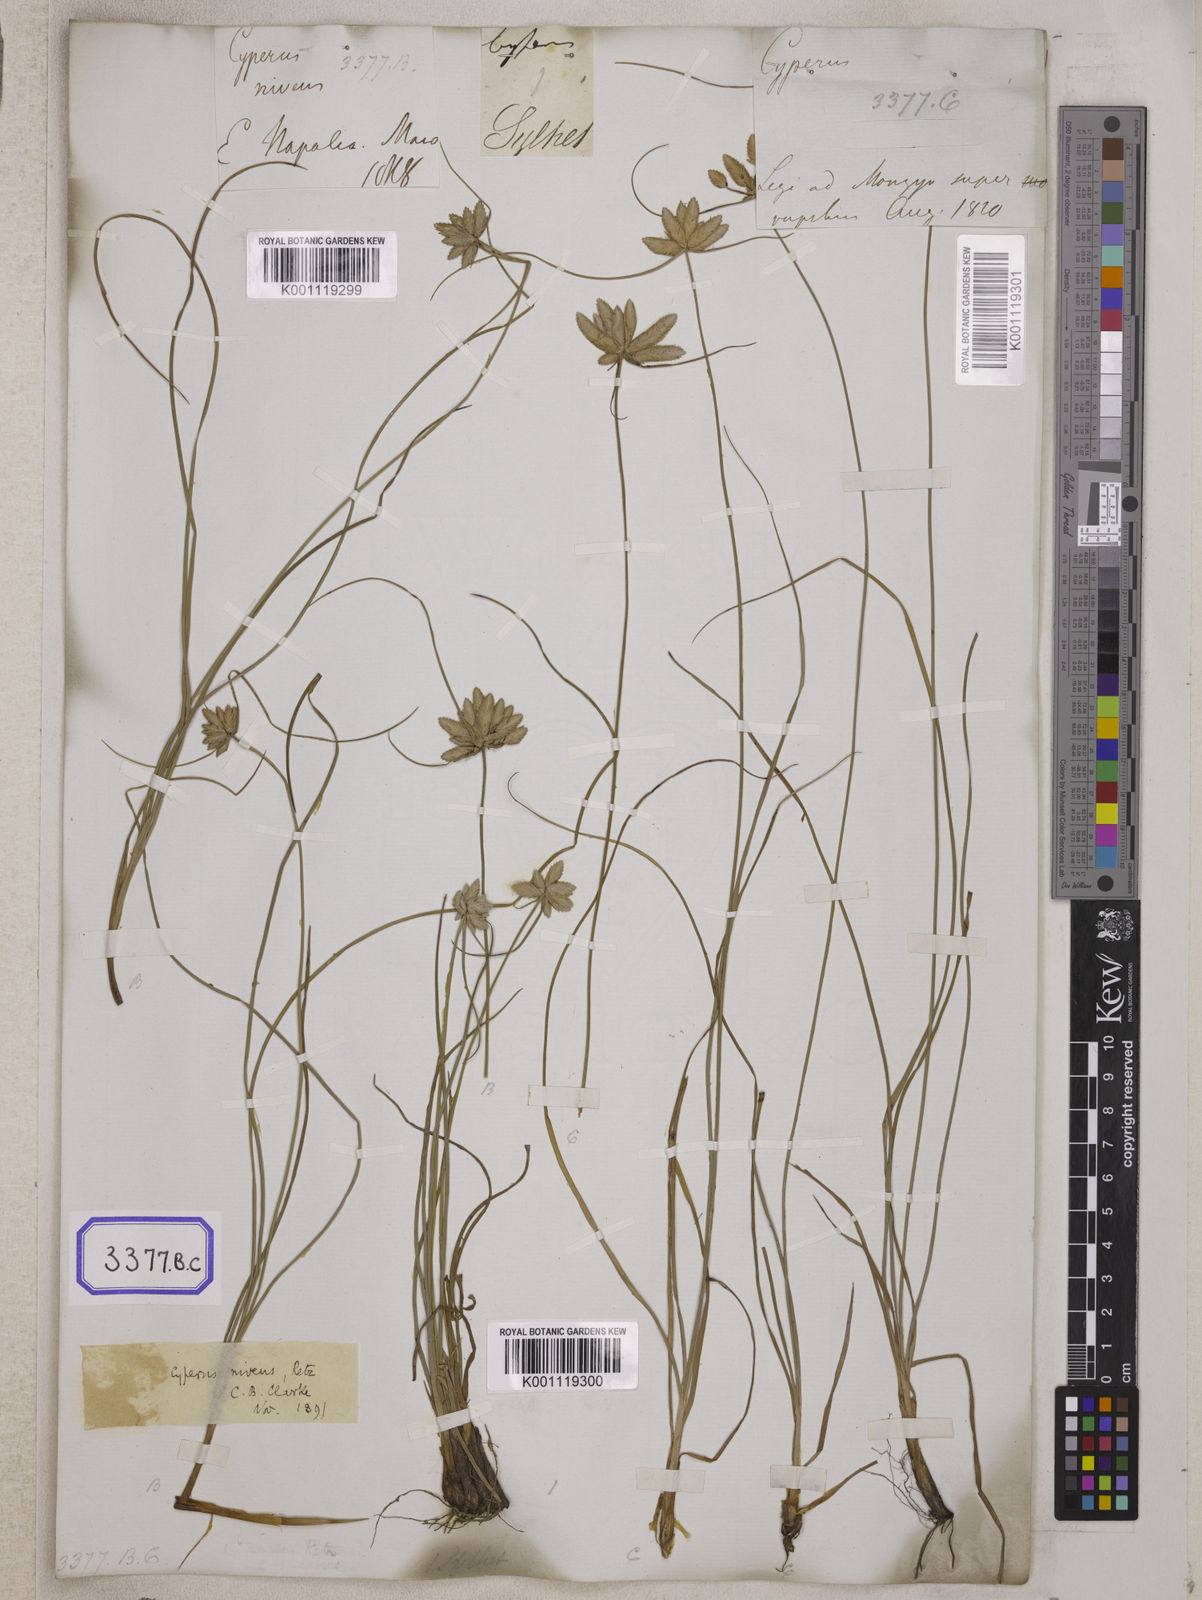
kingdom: Plantae
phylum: Tracheophyta
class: Liliopsida
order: Poales
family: Cyperaceae
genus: Cyperus
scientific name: Cyperus
